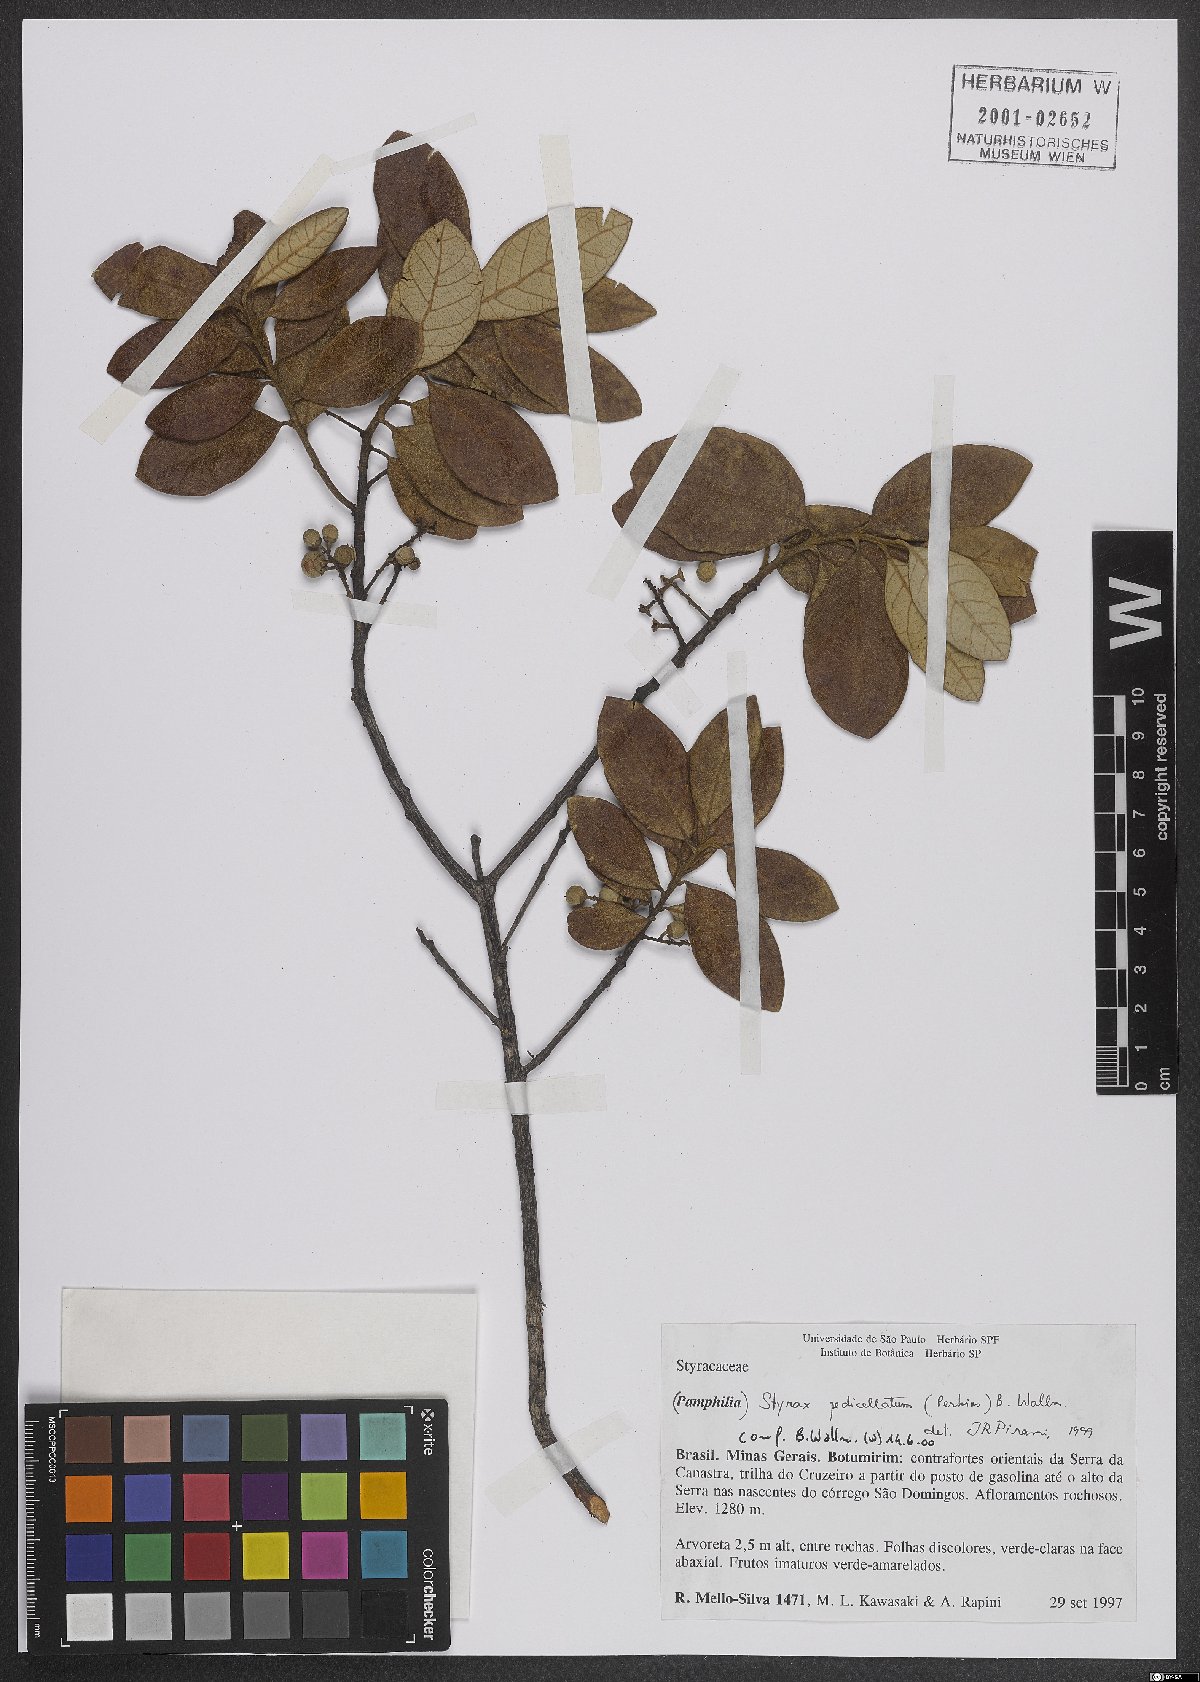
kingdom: Plantae
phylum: Tracheophyta
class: Magnoliopsida
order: Ericales
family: Styracaceae
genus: Styrax
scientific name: Styrax pedicellatus
